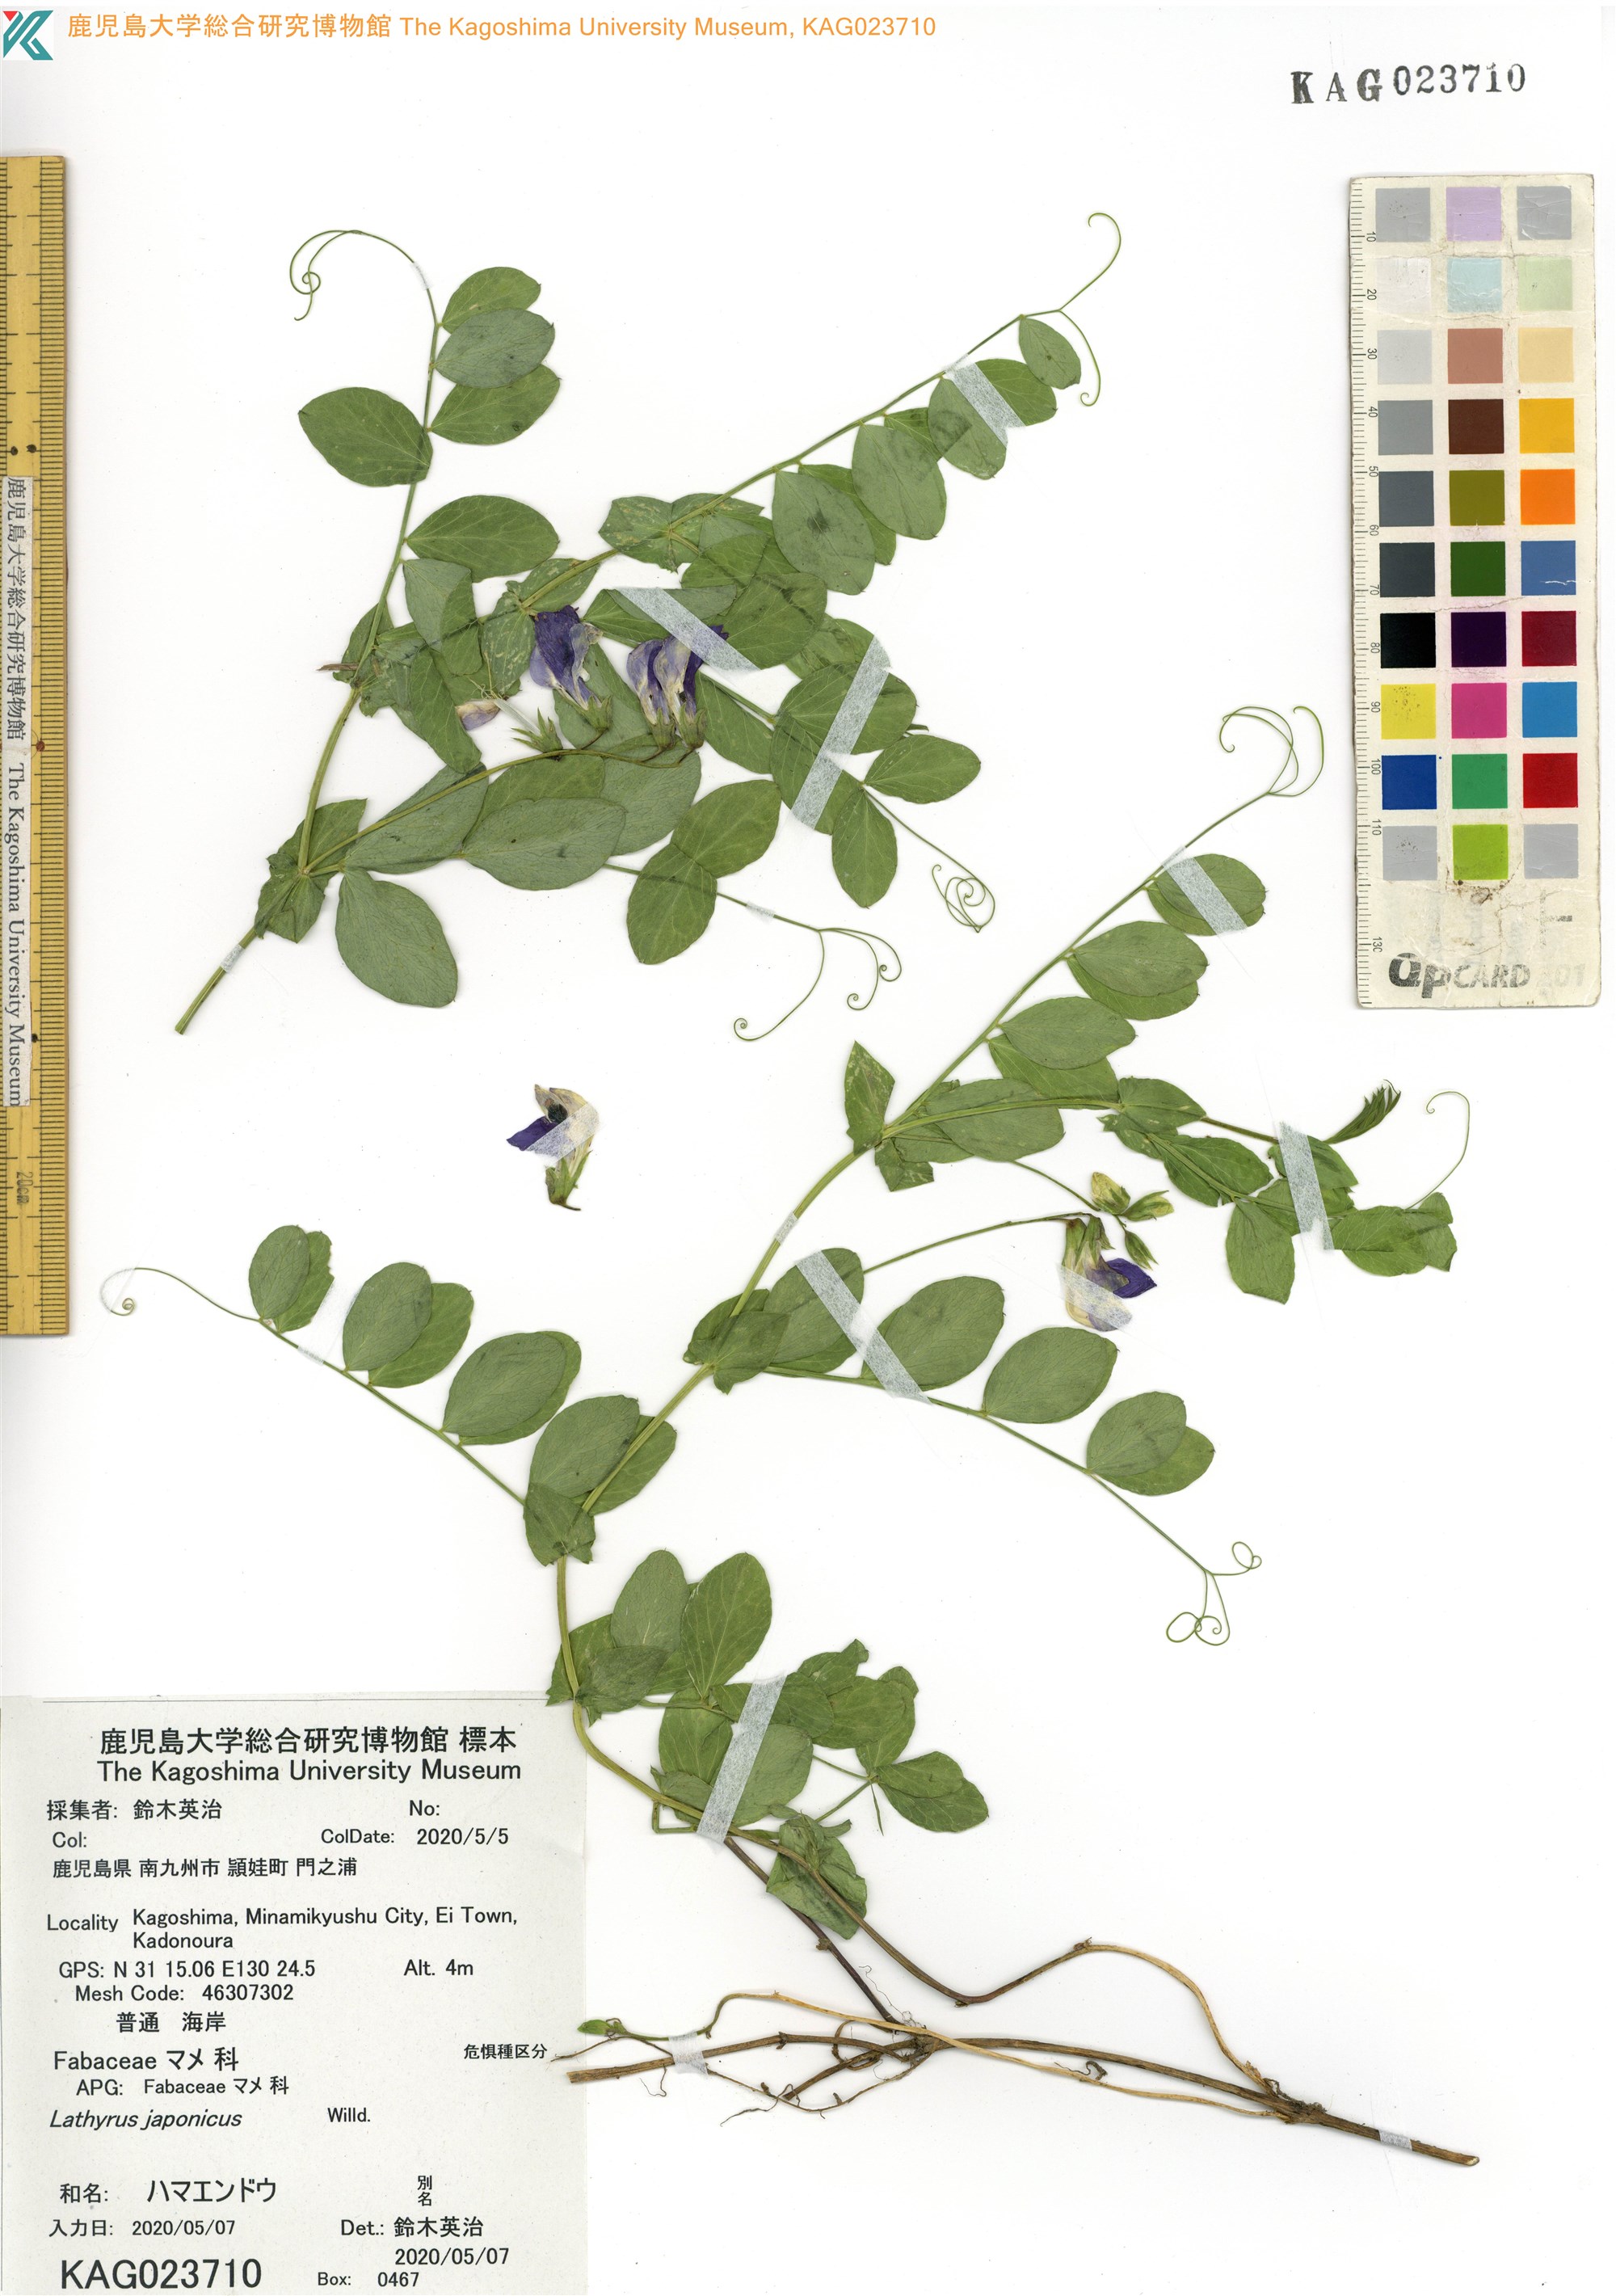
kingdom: Plantae
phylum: Tracheophyta
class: Magnoliopsida
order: Fabales
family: Fabaceae
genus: Lathyrus
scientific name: Lathyrus japonicus
